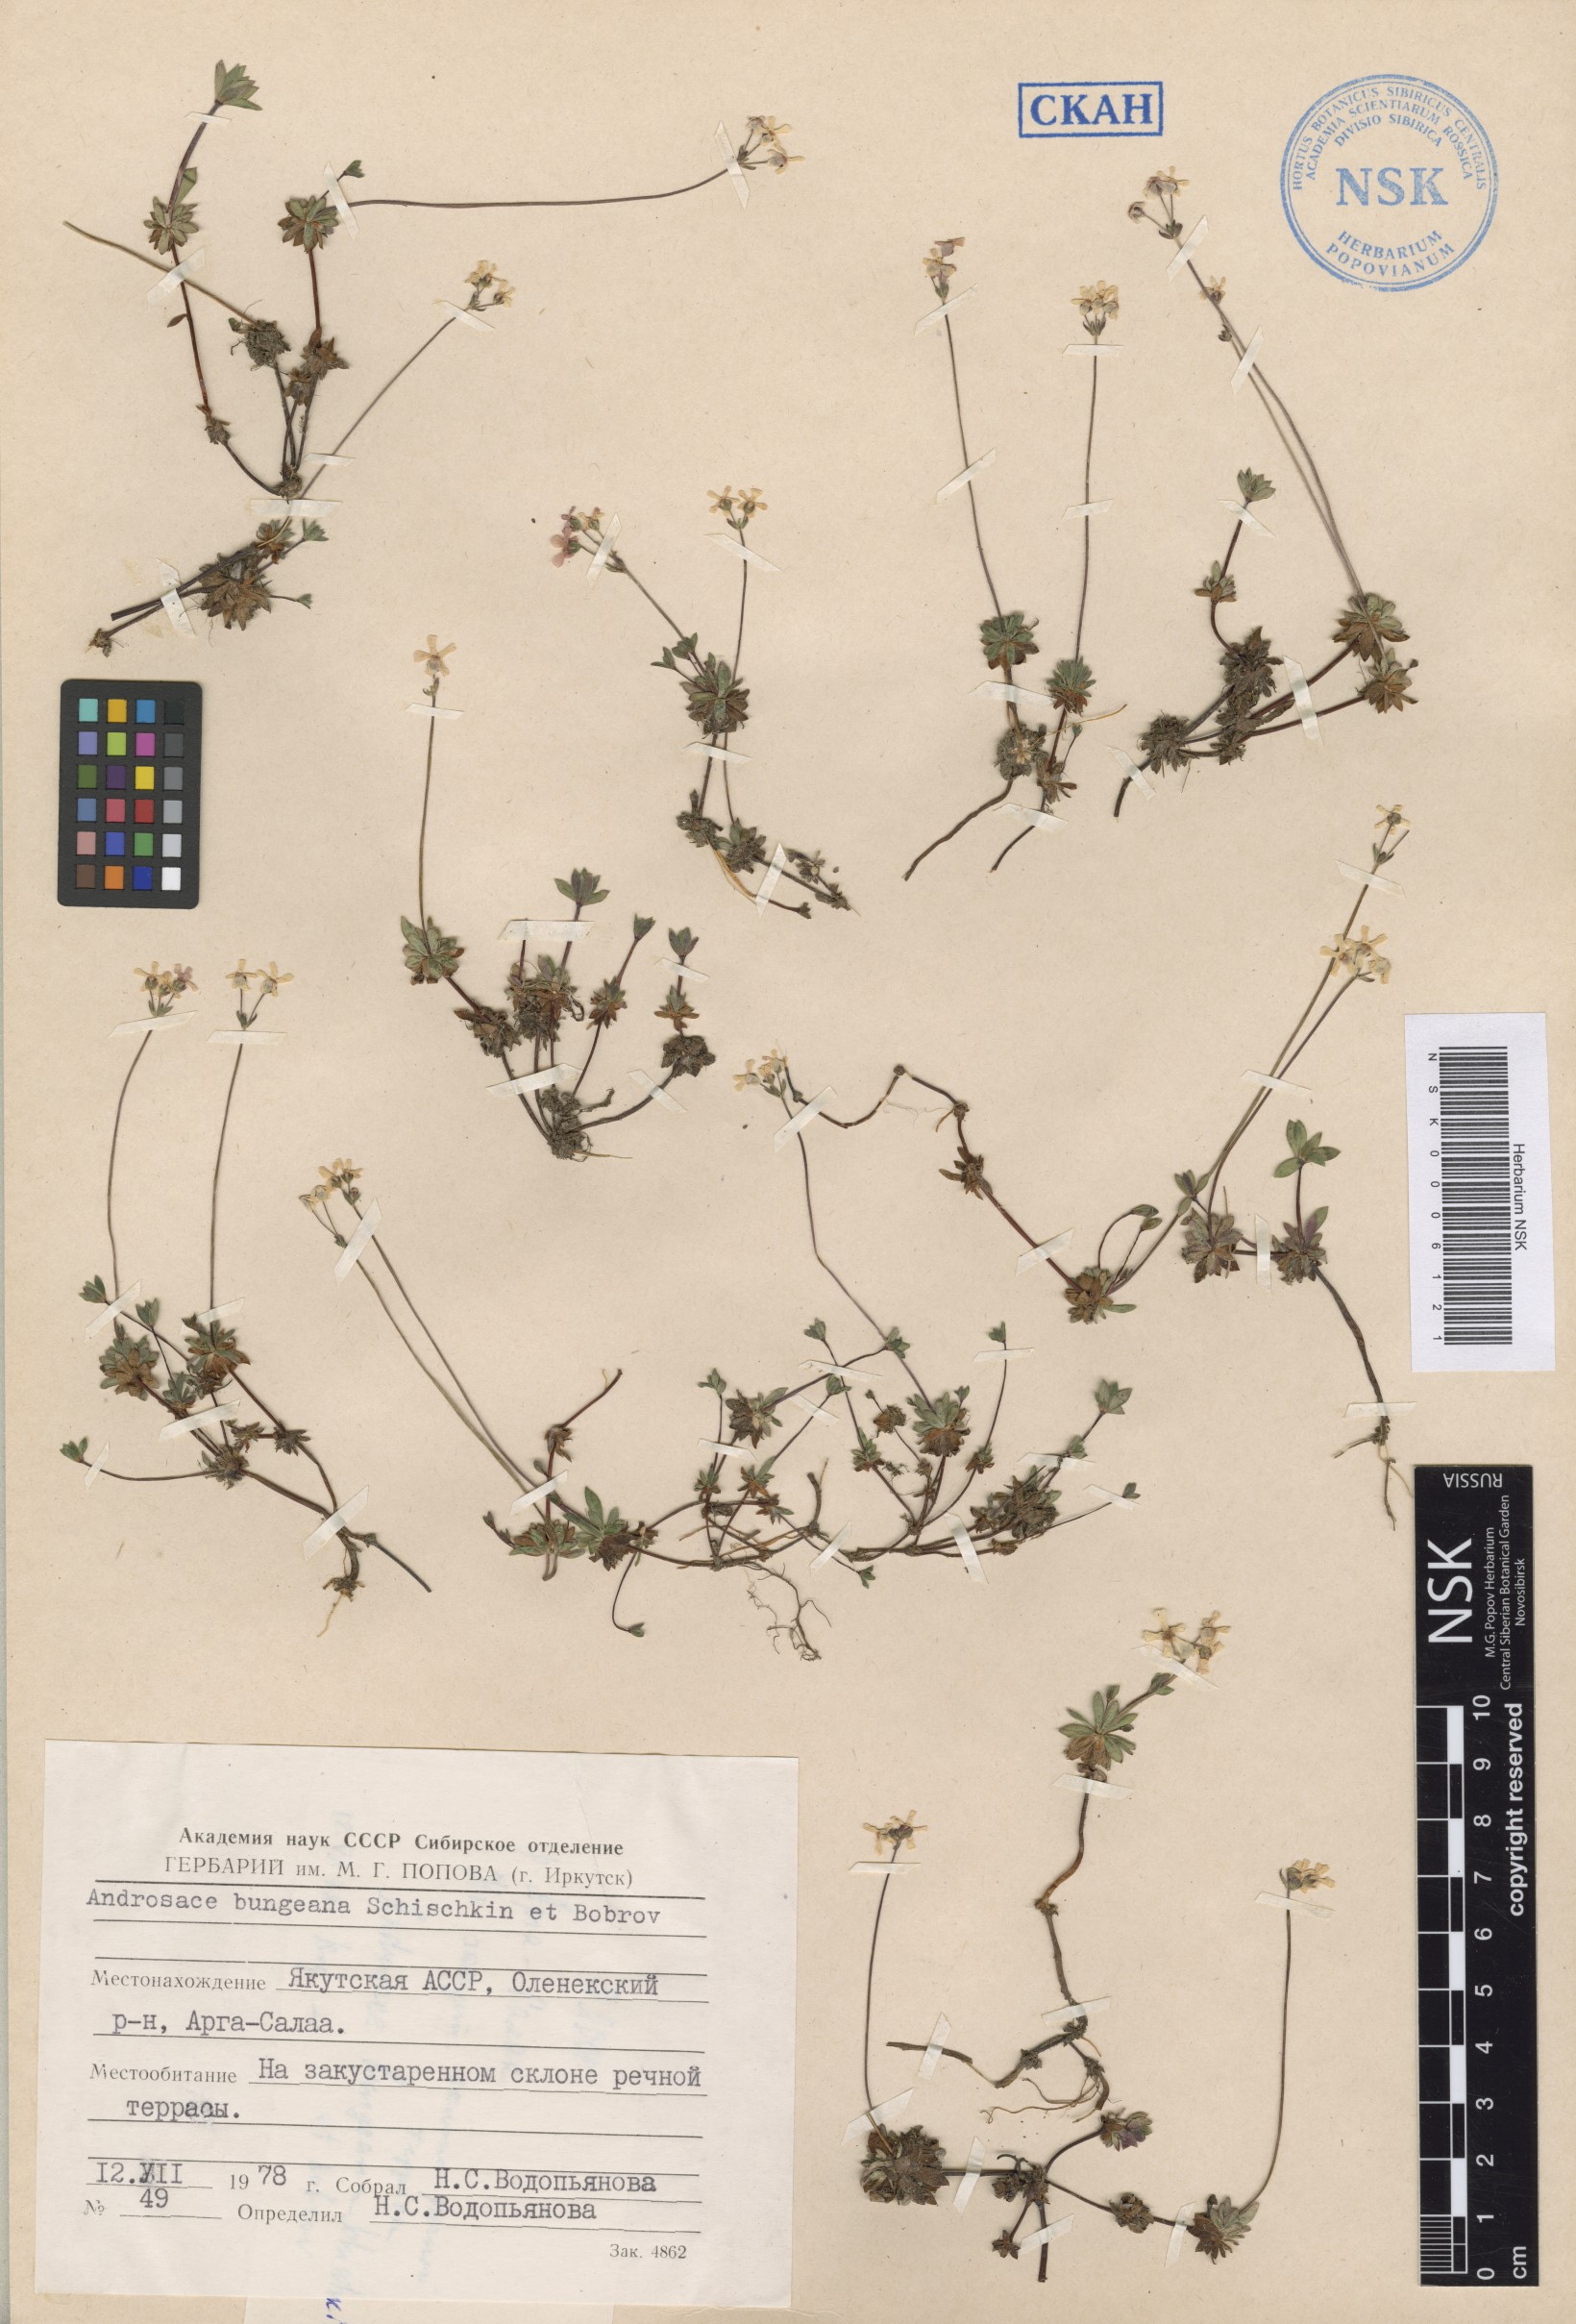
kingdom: Plantae
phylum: Tracheophyta
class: Magnoliopsida
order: Ericales
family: Primulaceae
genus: Androsace
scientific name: Androsace bungeana
